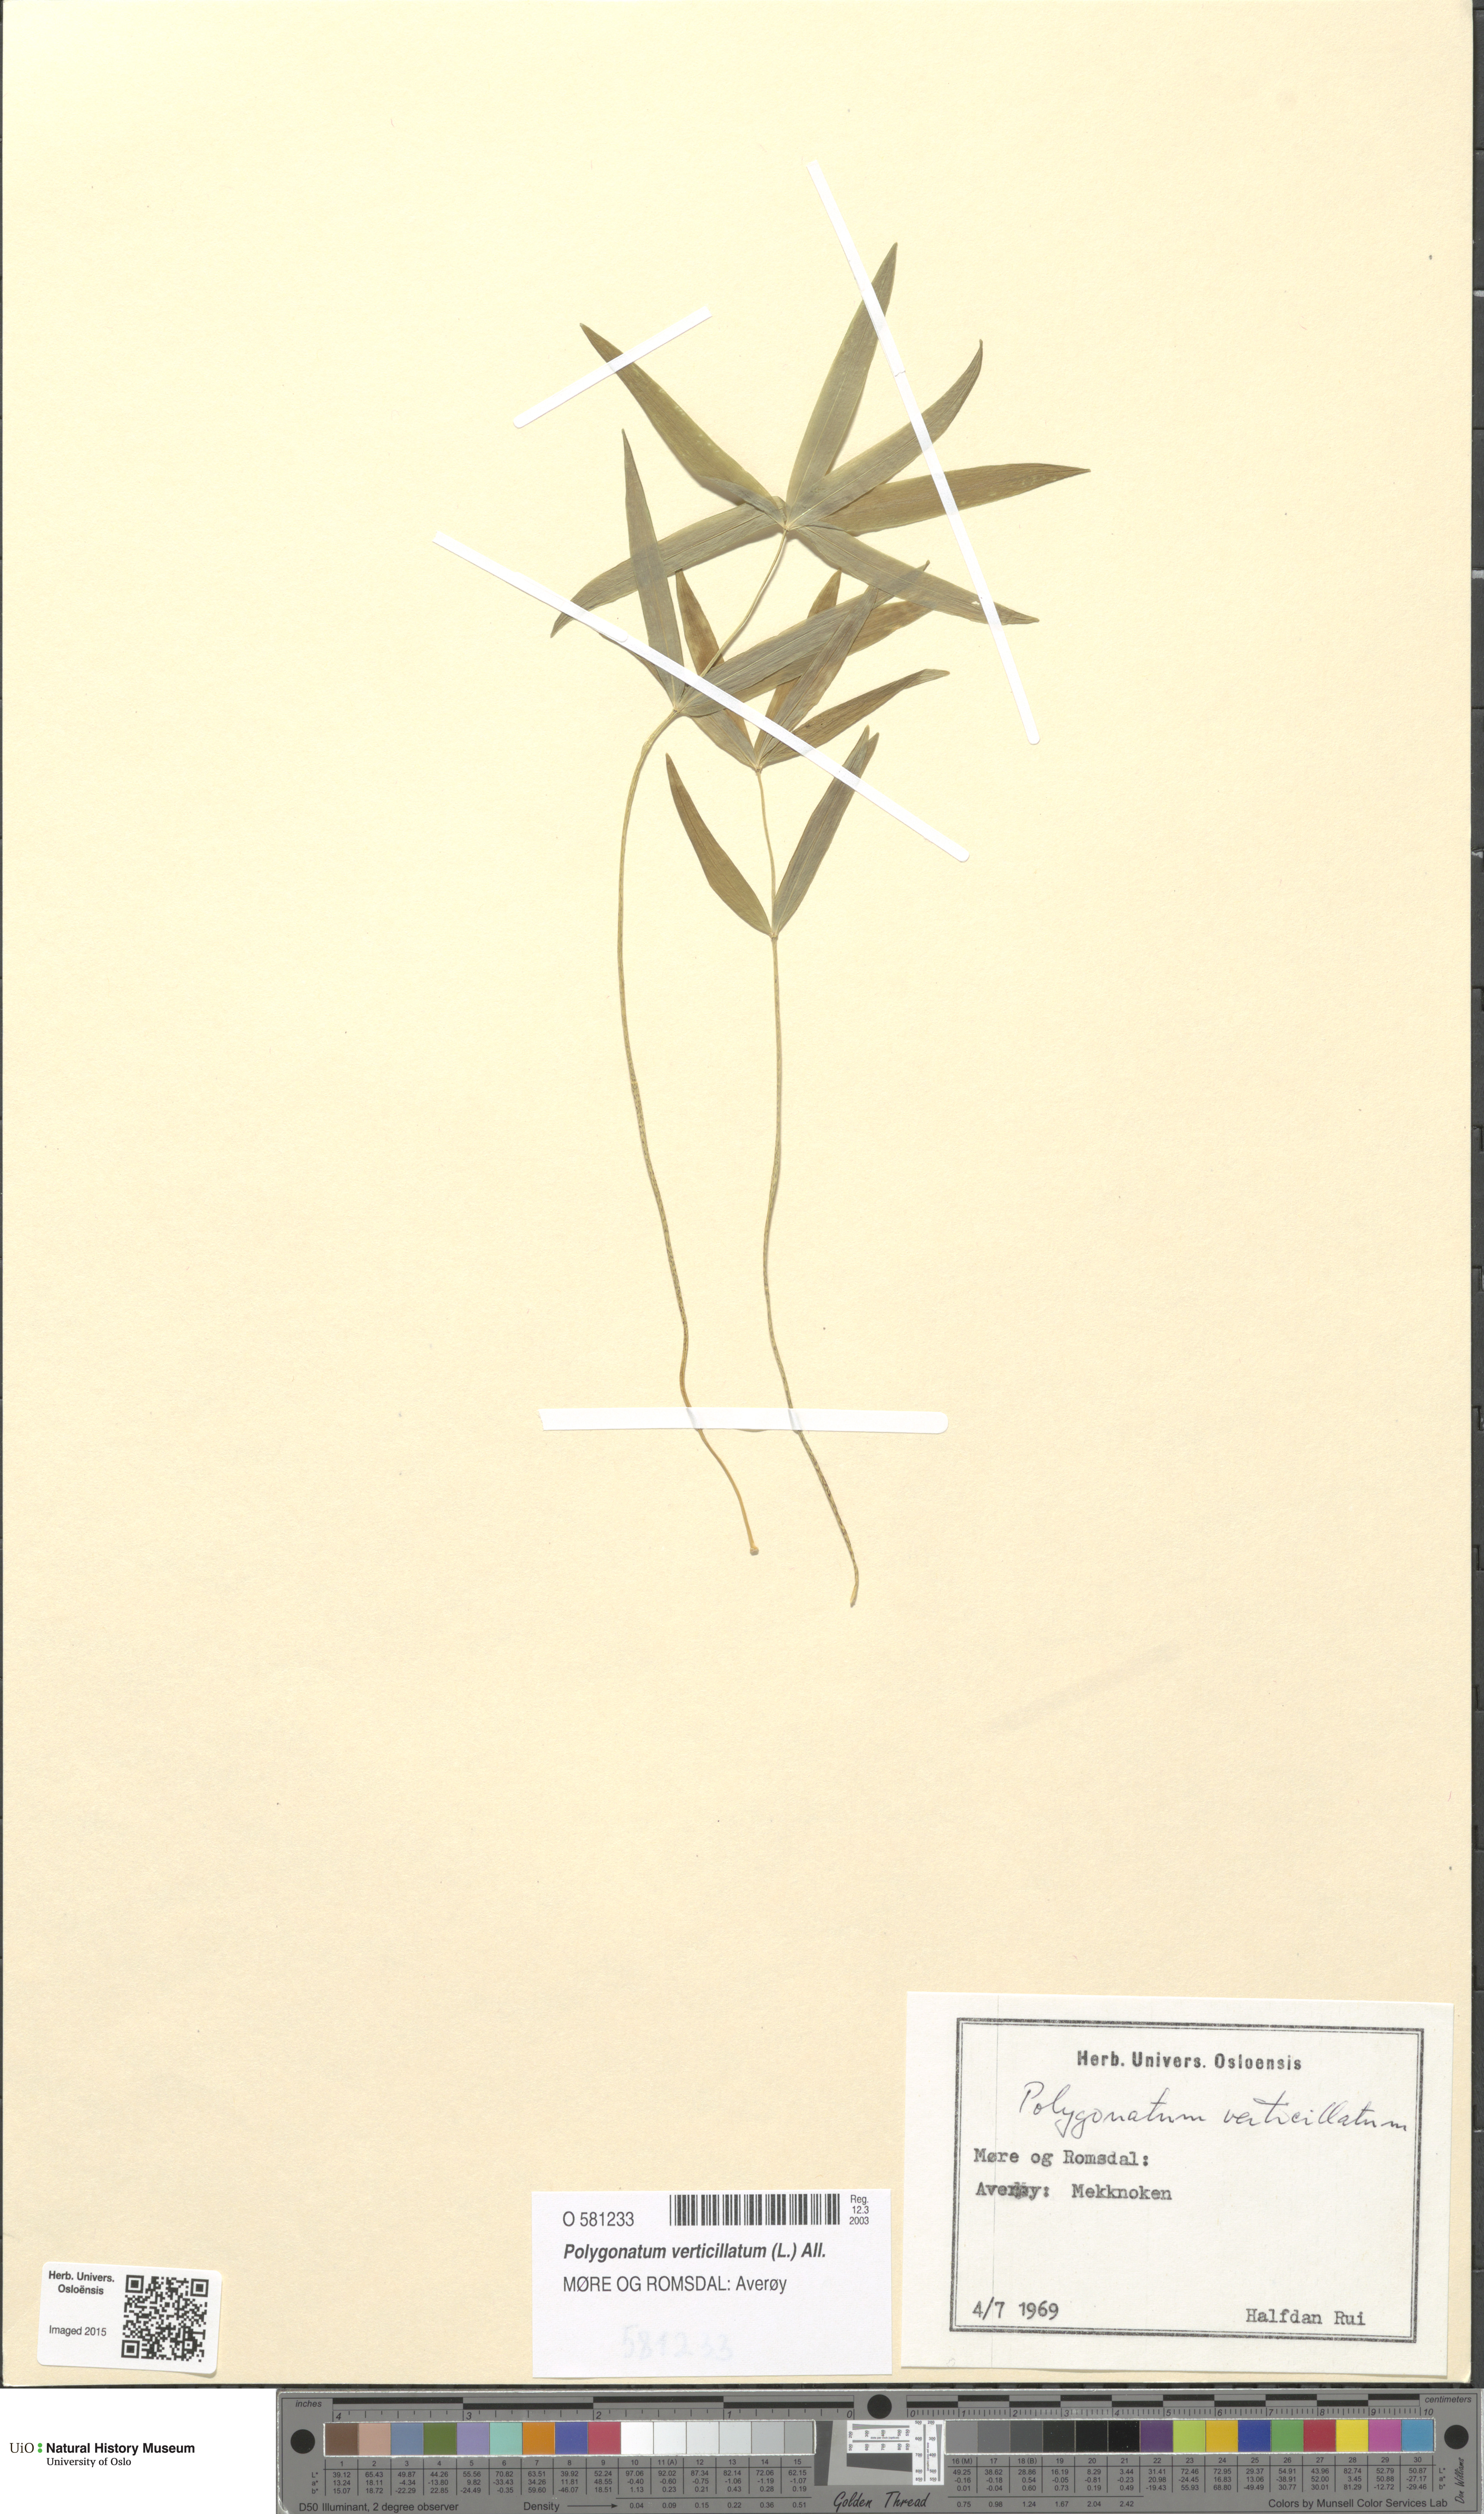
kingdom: Plantae
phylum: Tracheophyta
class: Liliopsida
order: Asparagales
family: Asparagaceae
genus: Polygonatum
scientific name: Polygonatum verticillatum
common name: Whorled solomon's-seal
